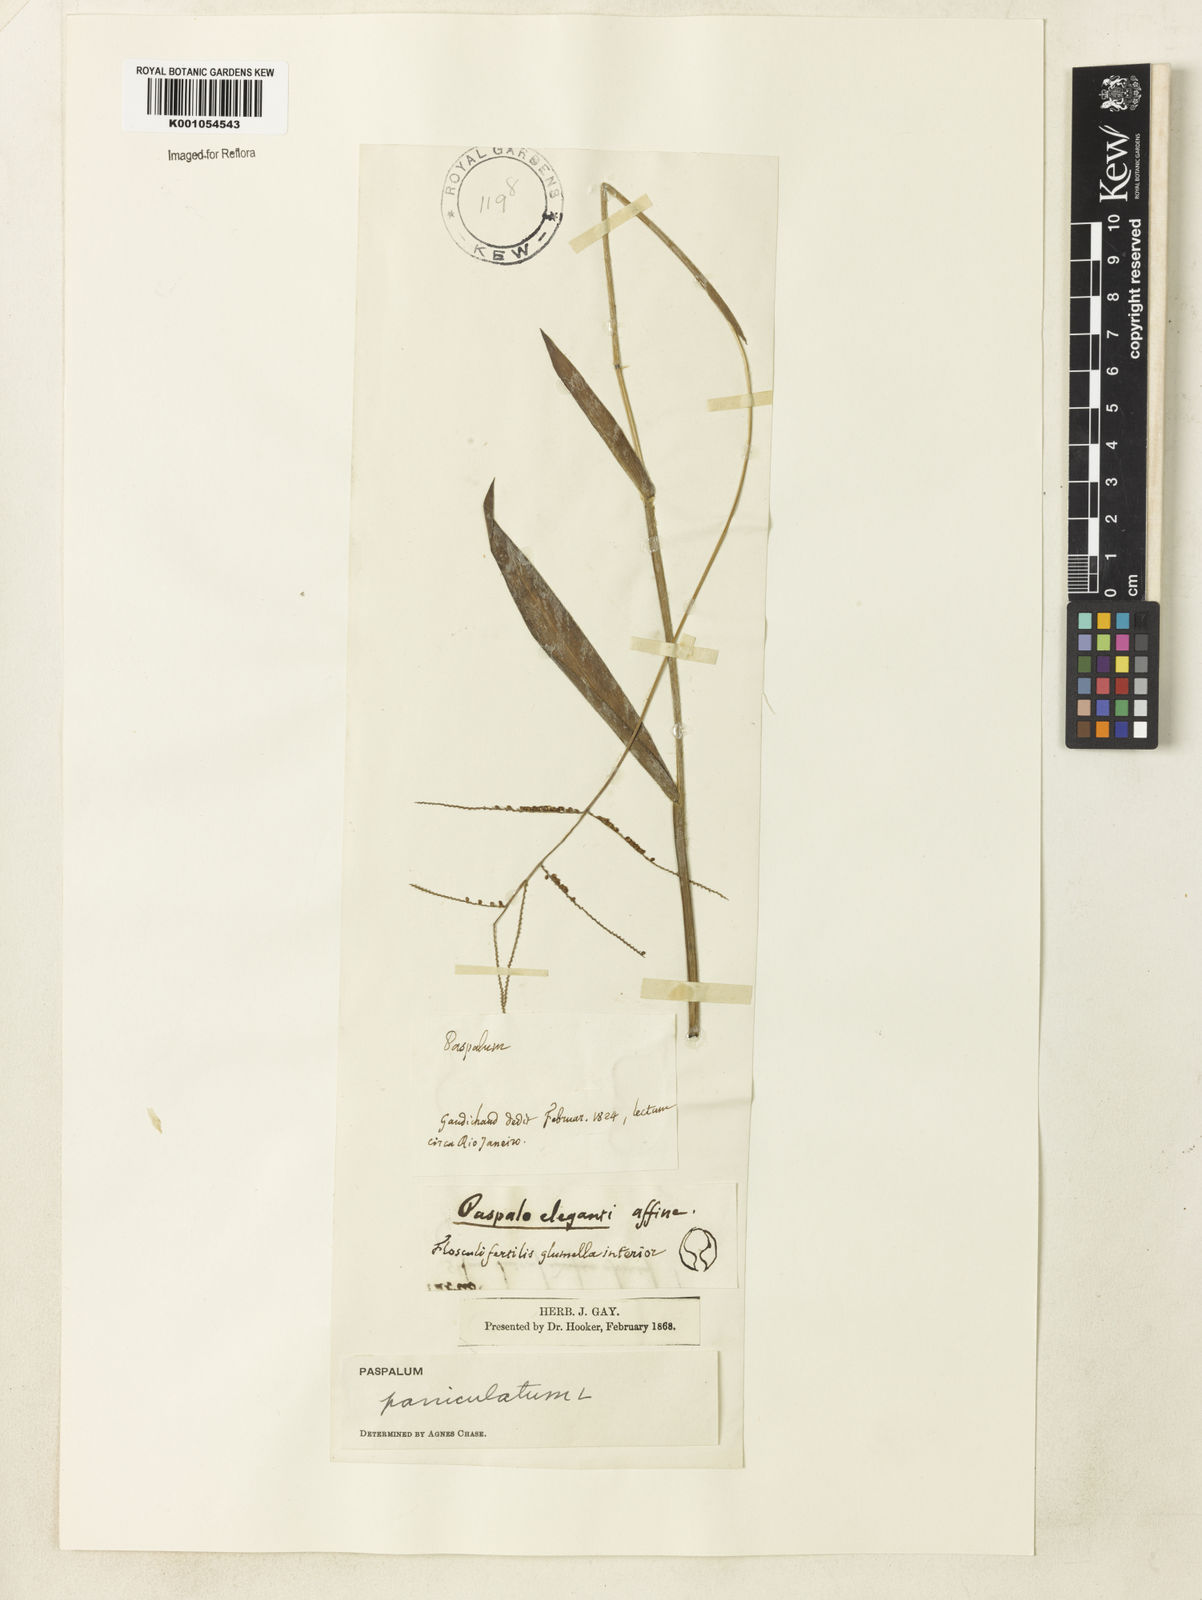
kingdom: Plantae
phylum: Tracheophyta
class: Liliopsida
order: Poales
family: Poaceae
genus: Paspalum
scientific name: Paspalum paniculatum
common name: Arrocillo
